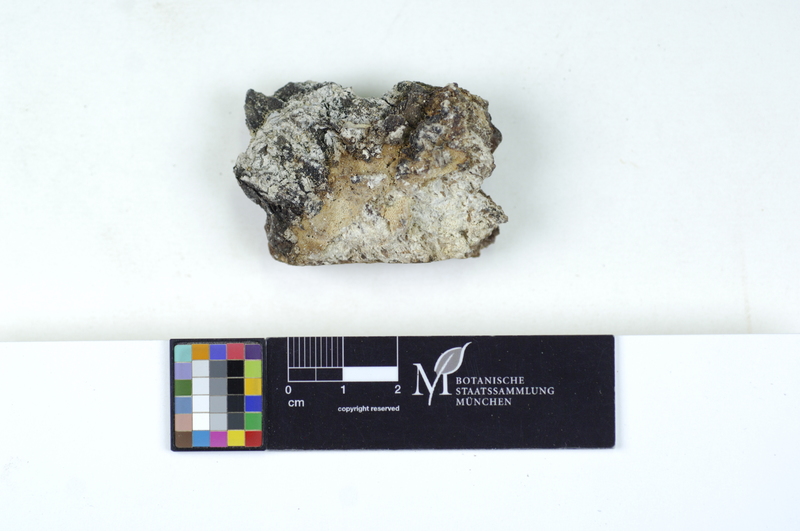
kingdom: Fungi
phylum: Basidiomycota
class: Agaricomycetes
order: Polyporales
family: Fomitopsidaceae
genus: Resinoporia
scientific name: Resinoporia crassa
